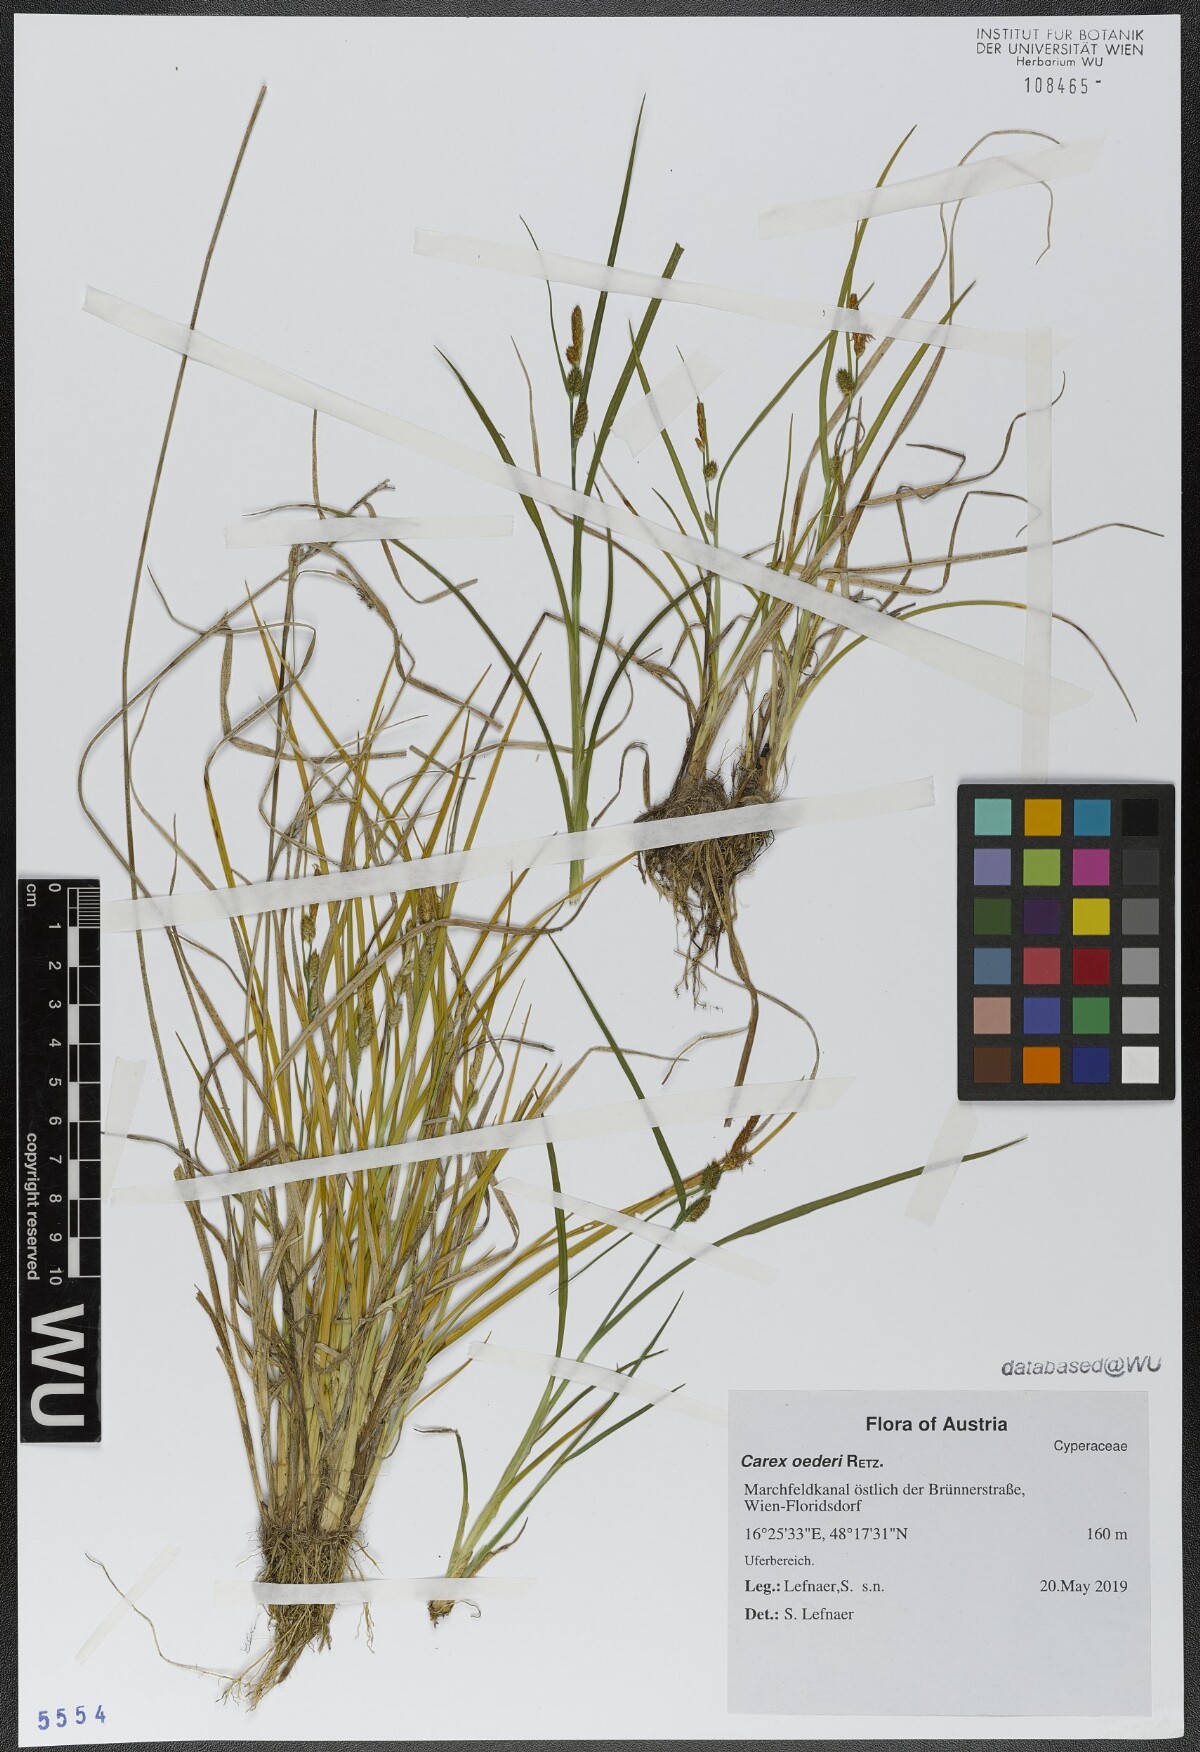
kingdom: Plantae
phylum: Tracheophyta
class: Liliopsida
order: Poales
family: Cyperaceae
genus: Carex
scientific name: Carex oederi
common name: Common & small-fruited yellow-sedge
